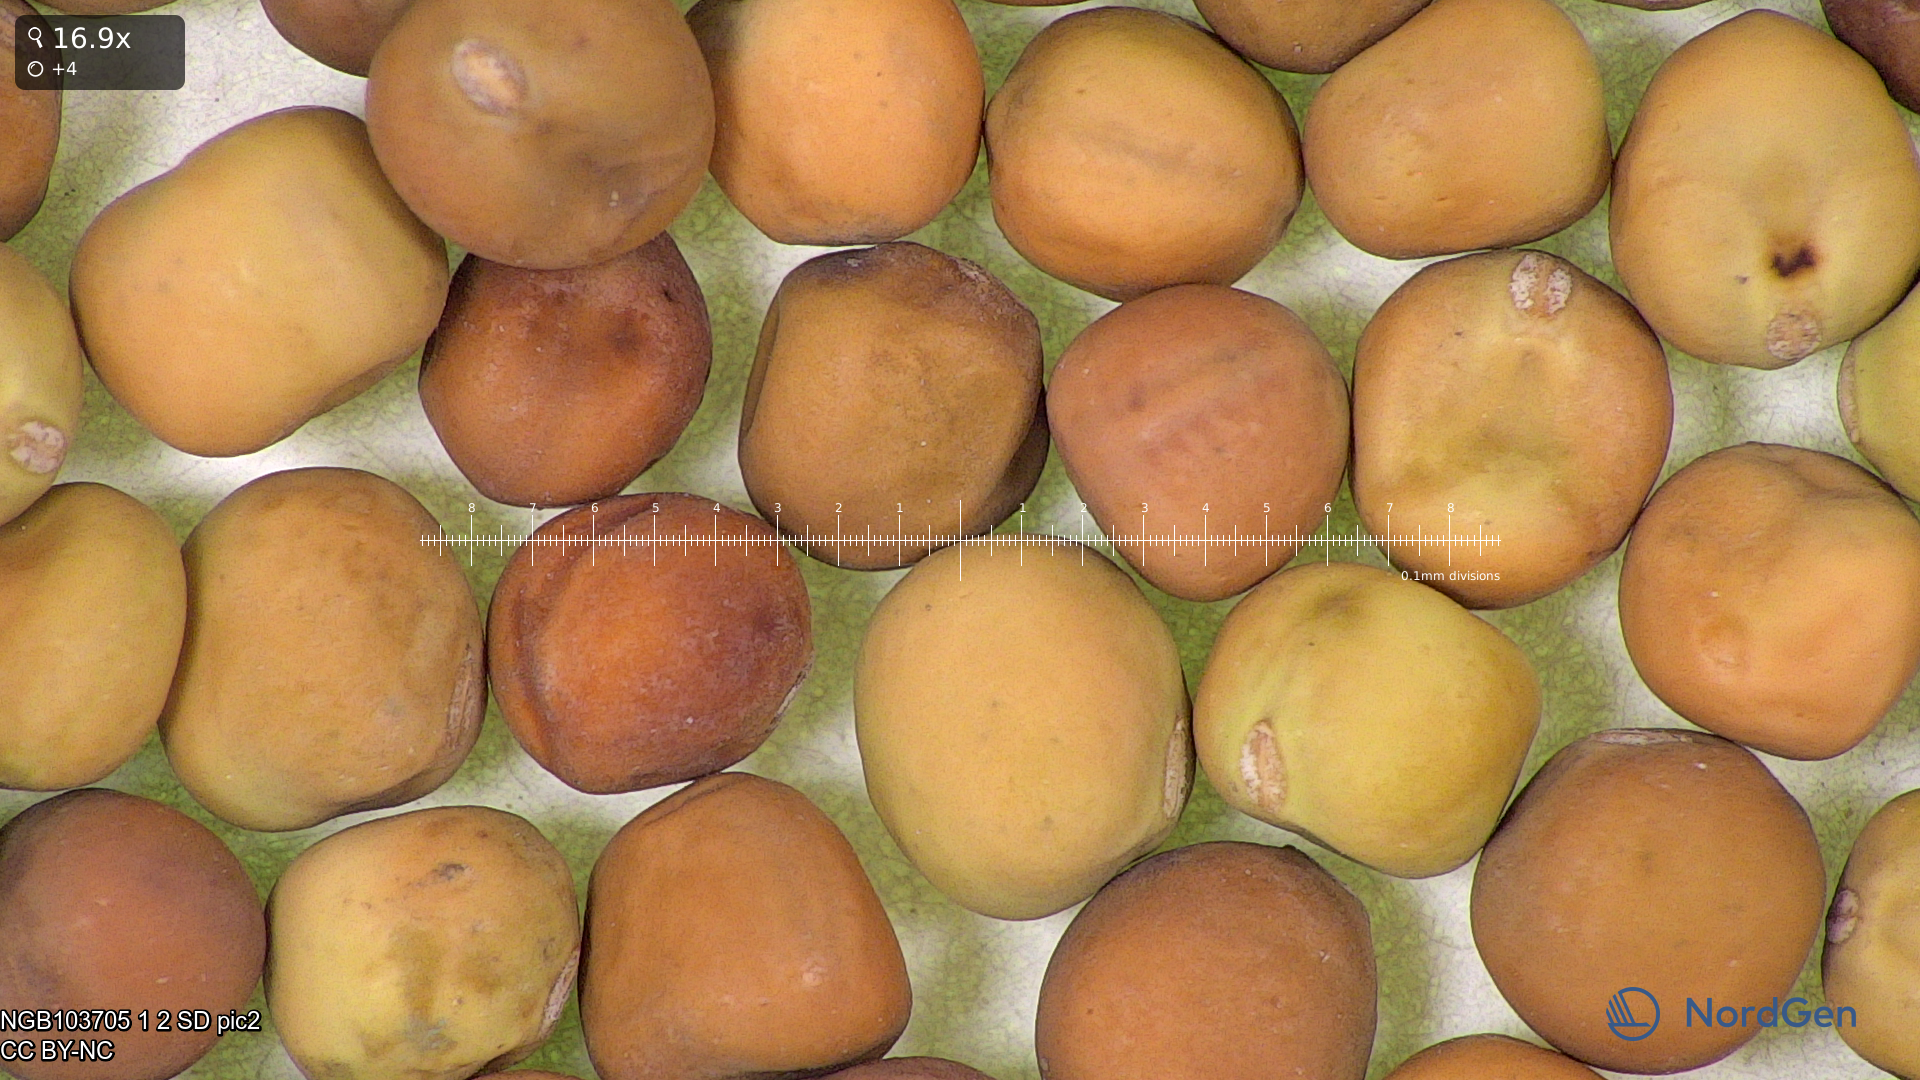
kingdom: Plantae
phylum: Tracheophyta
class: Magnoliopsida
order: Fabales
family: Fabaceae
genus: Lathyrus
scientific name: Lathyrus oleraceus
